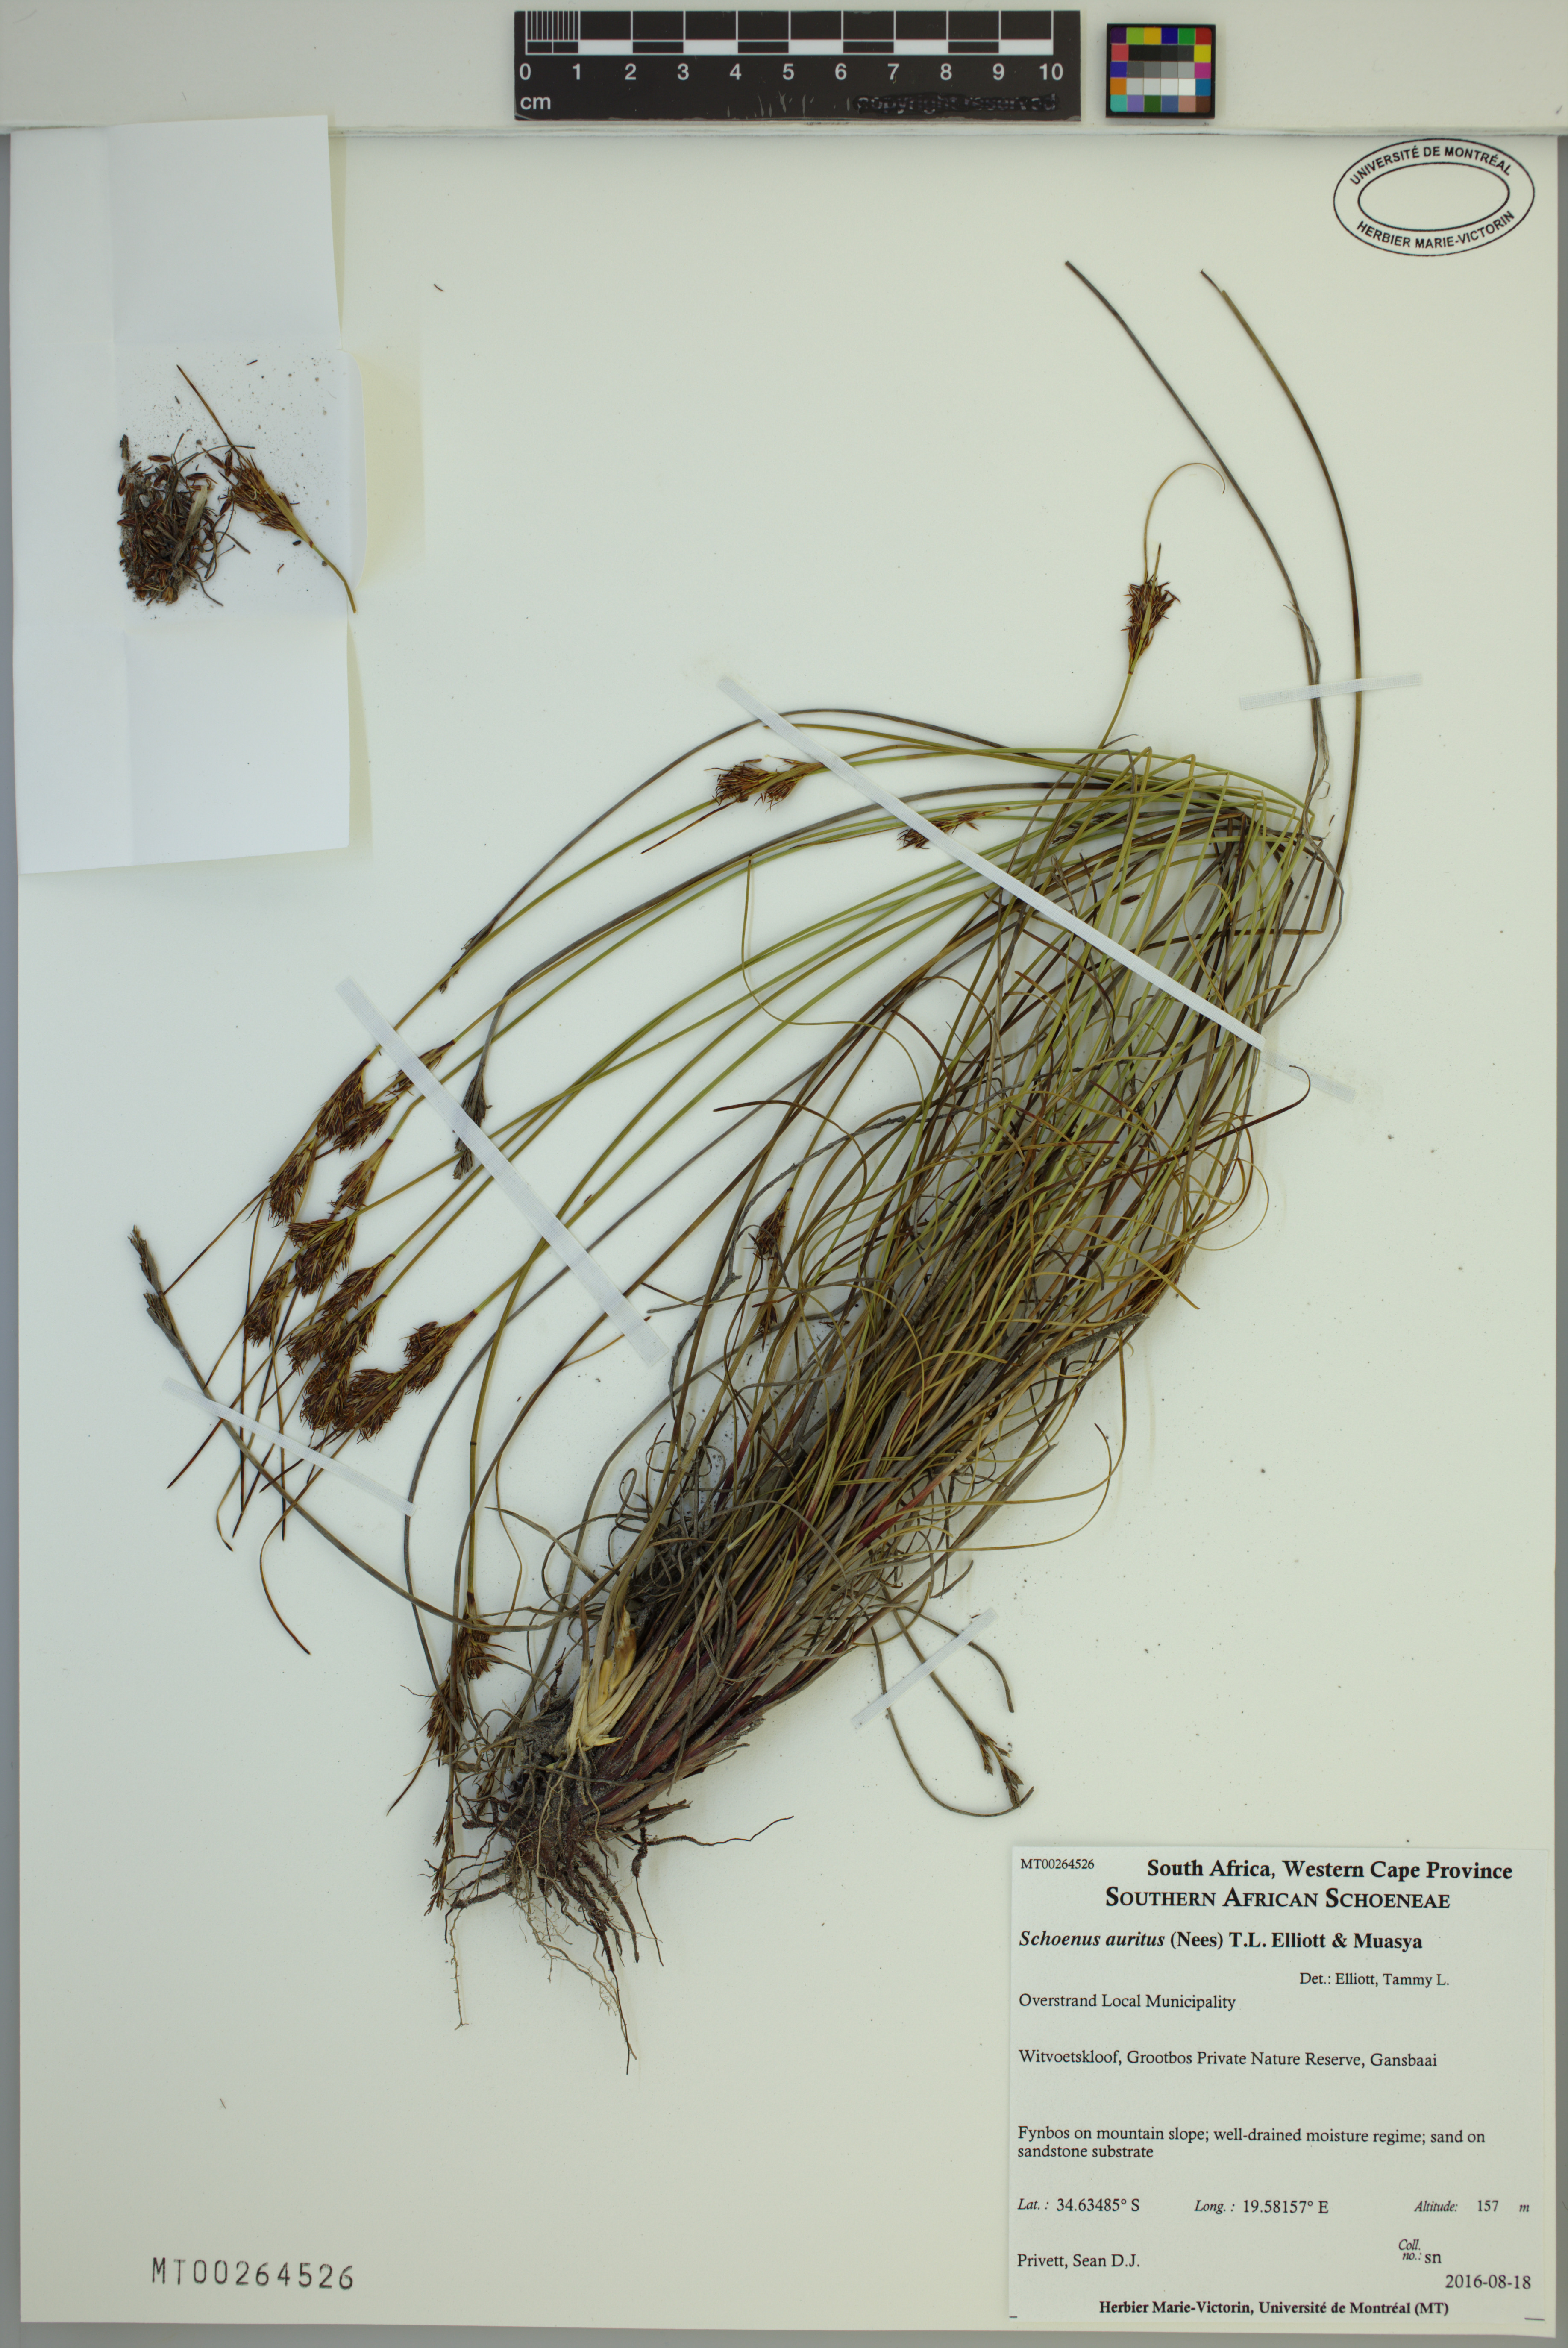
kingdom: Plantae
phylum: Tracheophyta
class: Liliopsida
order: Poales
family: Cyperaceae
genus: Schoenus
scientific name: Schoenus auritus
